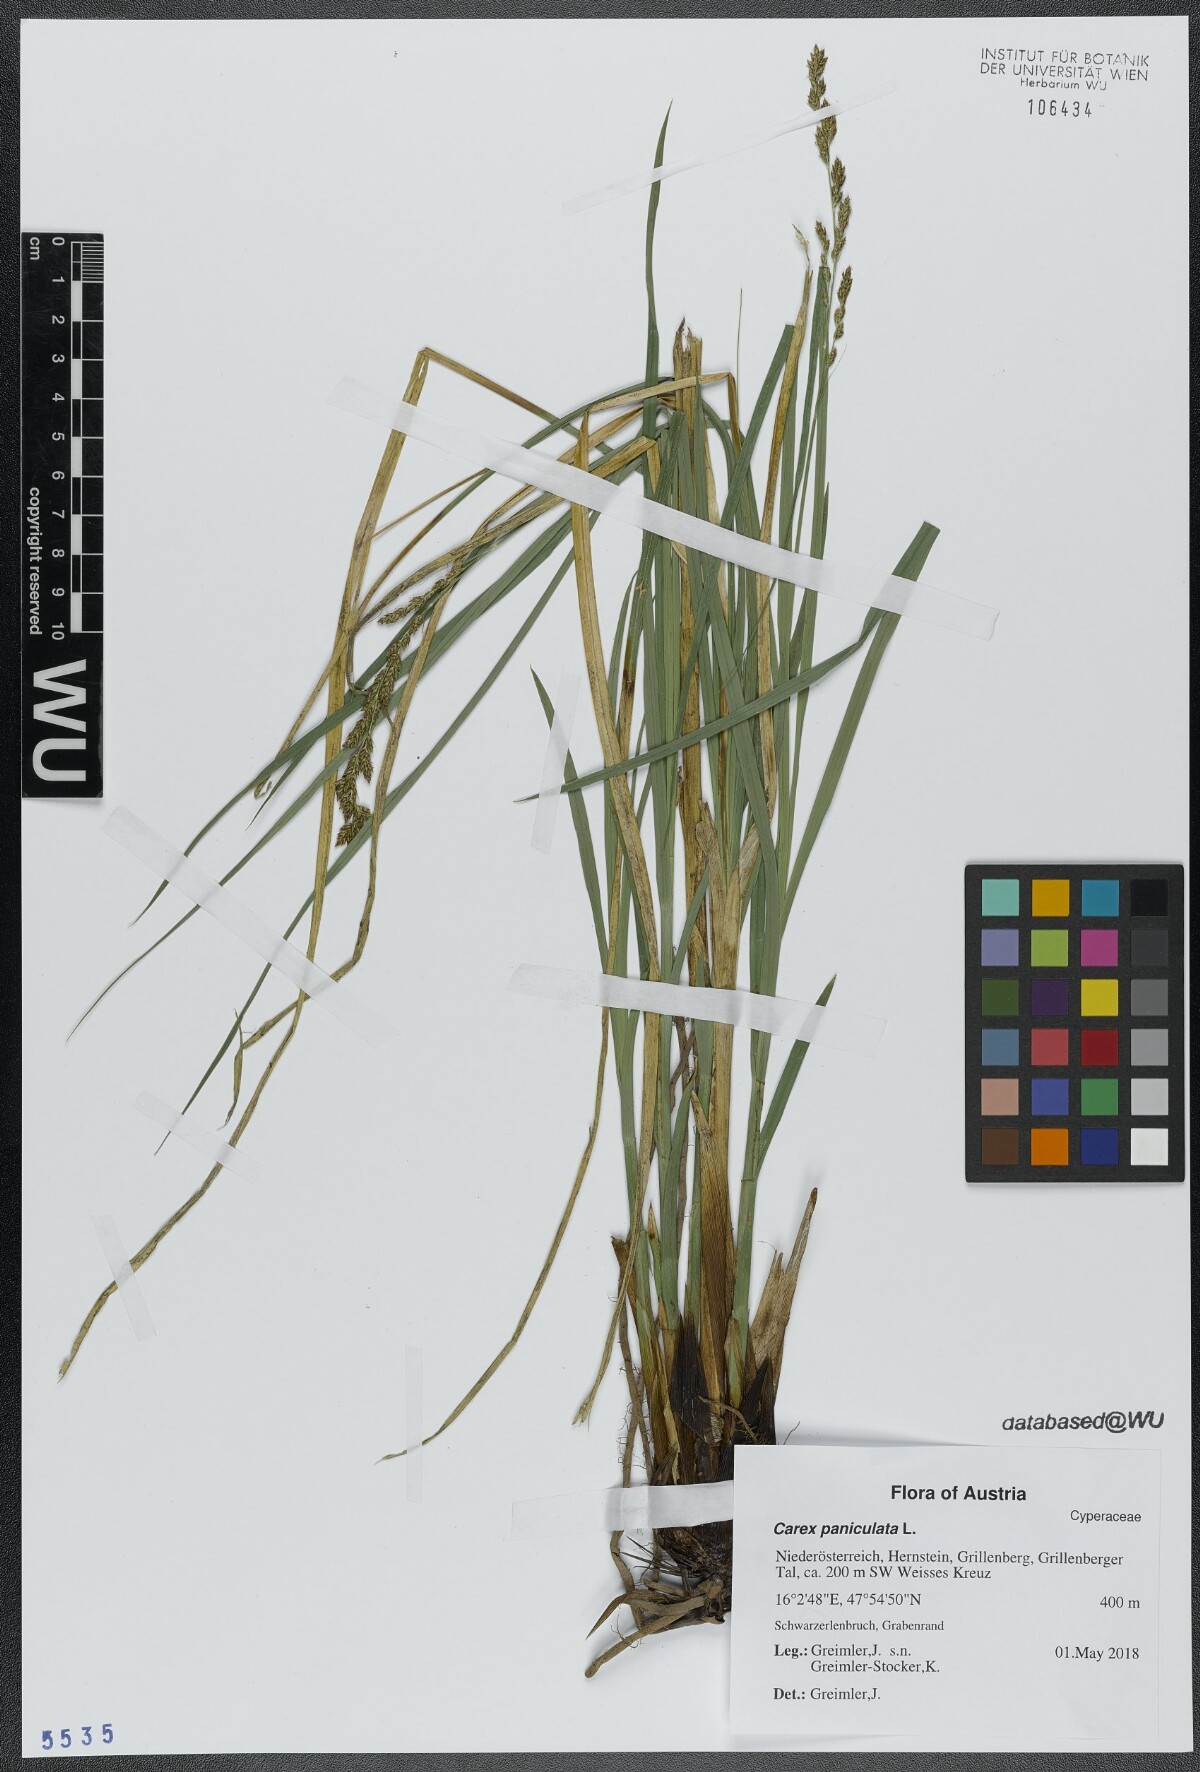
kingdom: Plantae
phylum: Tracheophyta
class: Liliopsida
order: Poales
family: Cyperaceae
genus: Carex
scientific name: Carex paniculata
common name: Greater tussock-sedge
